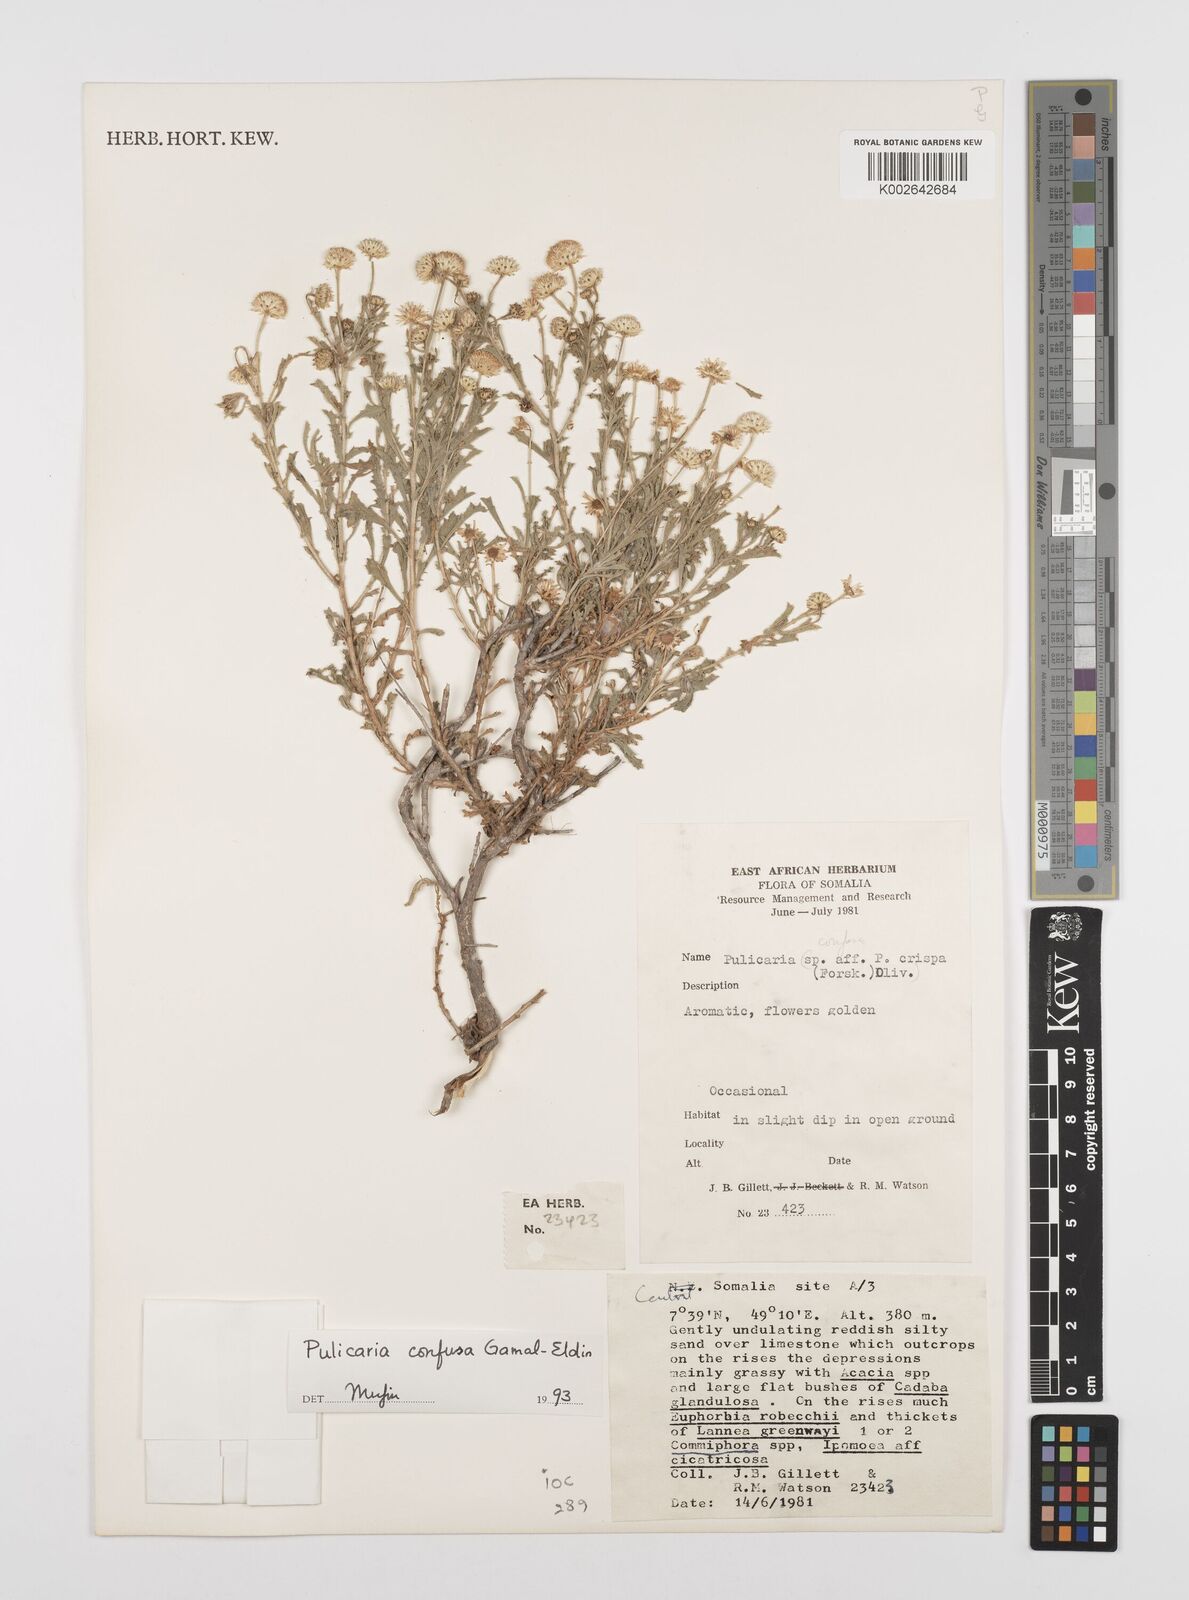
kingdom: Plantae
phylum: Tracheophyta
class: Magnoliopsida
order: Asterales
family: Asteraceae
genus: Pulicaria
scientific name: Pulicaria confusa
